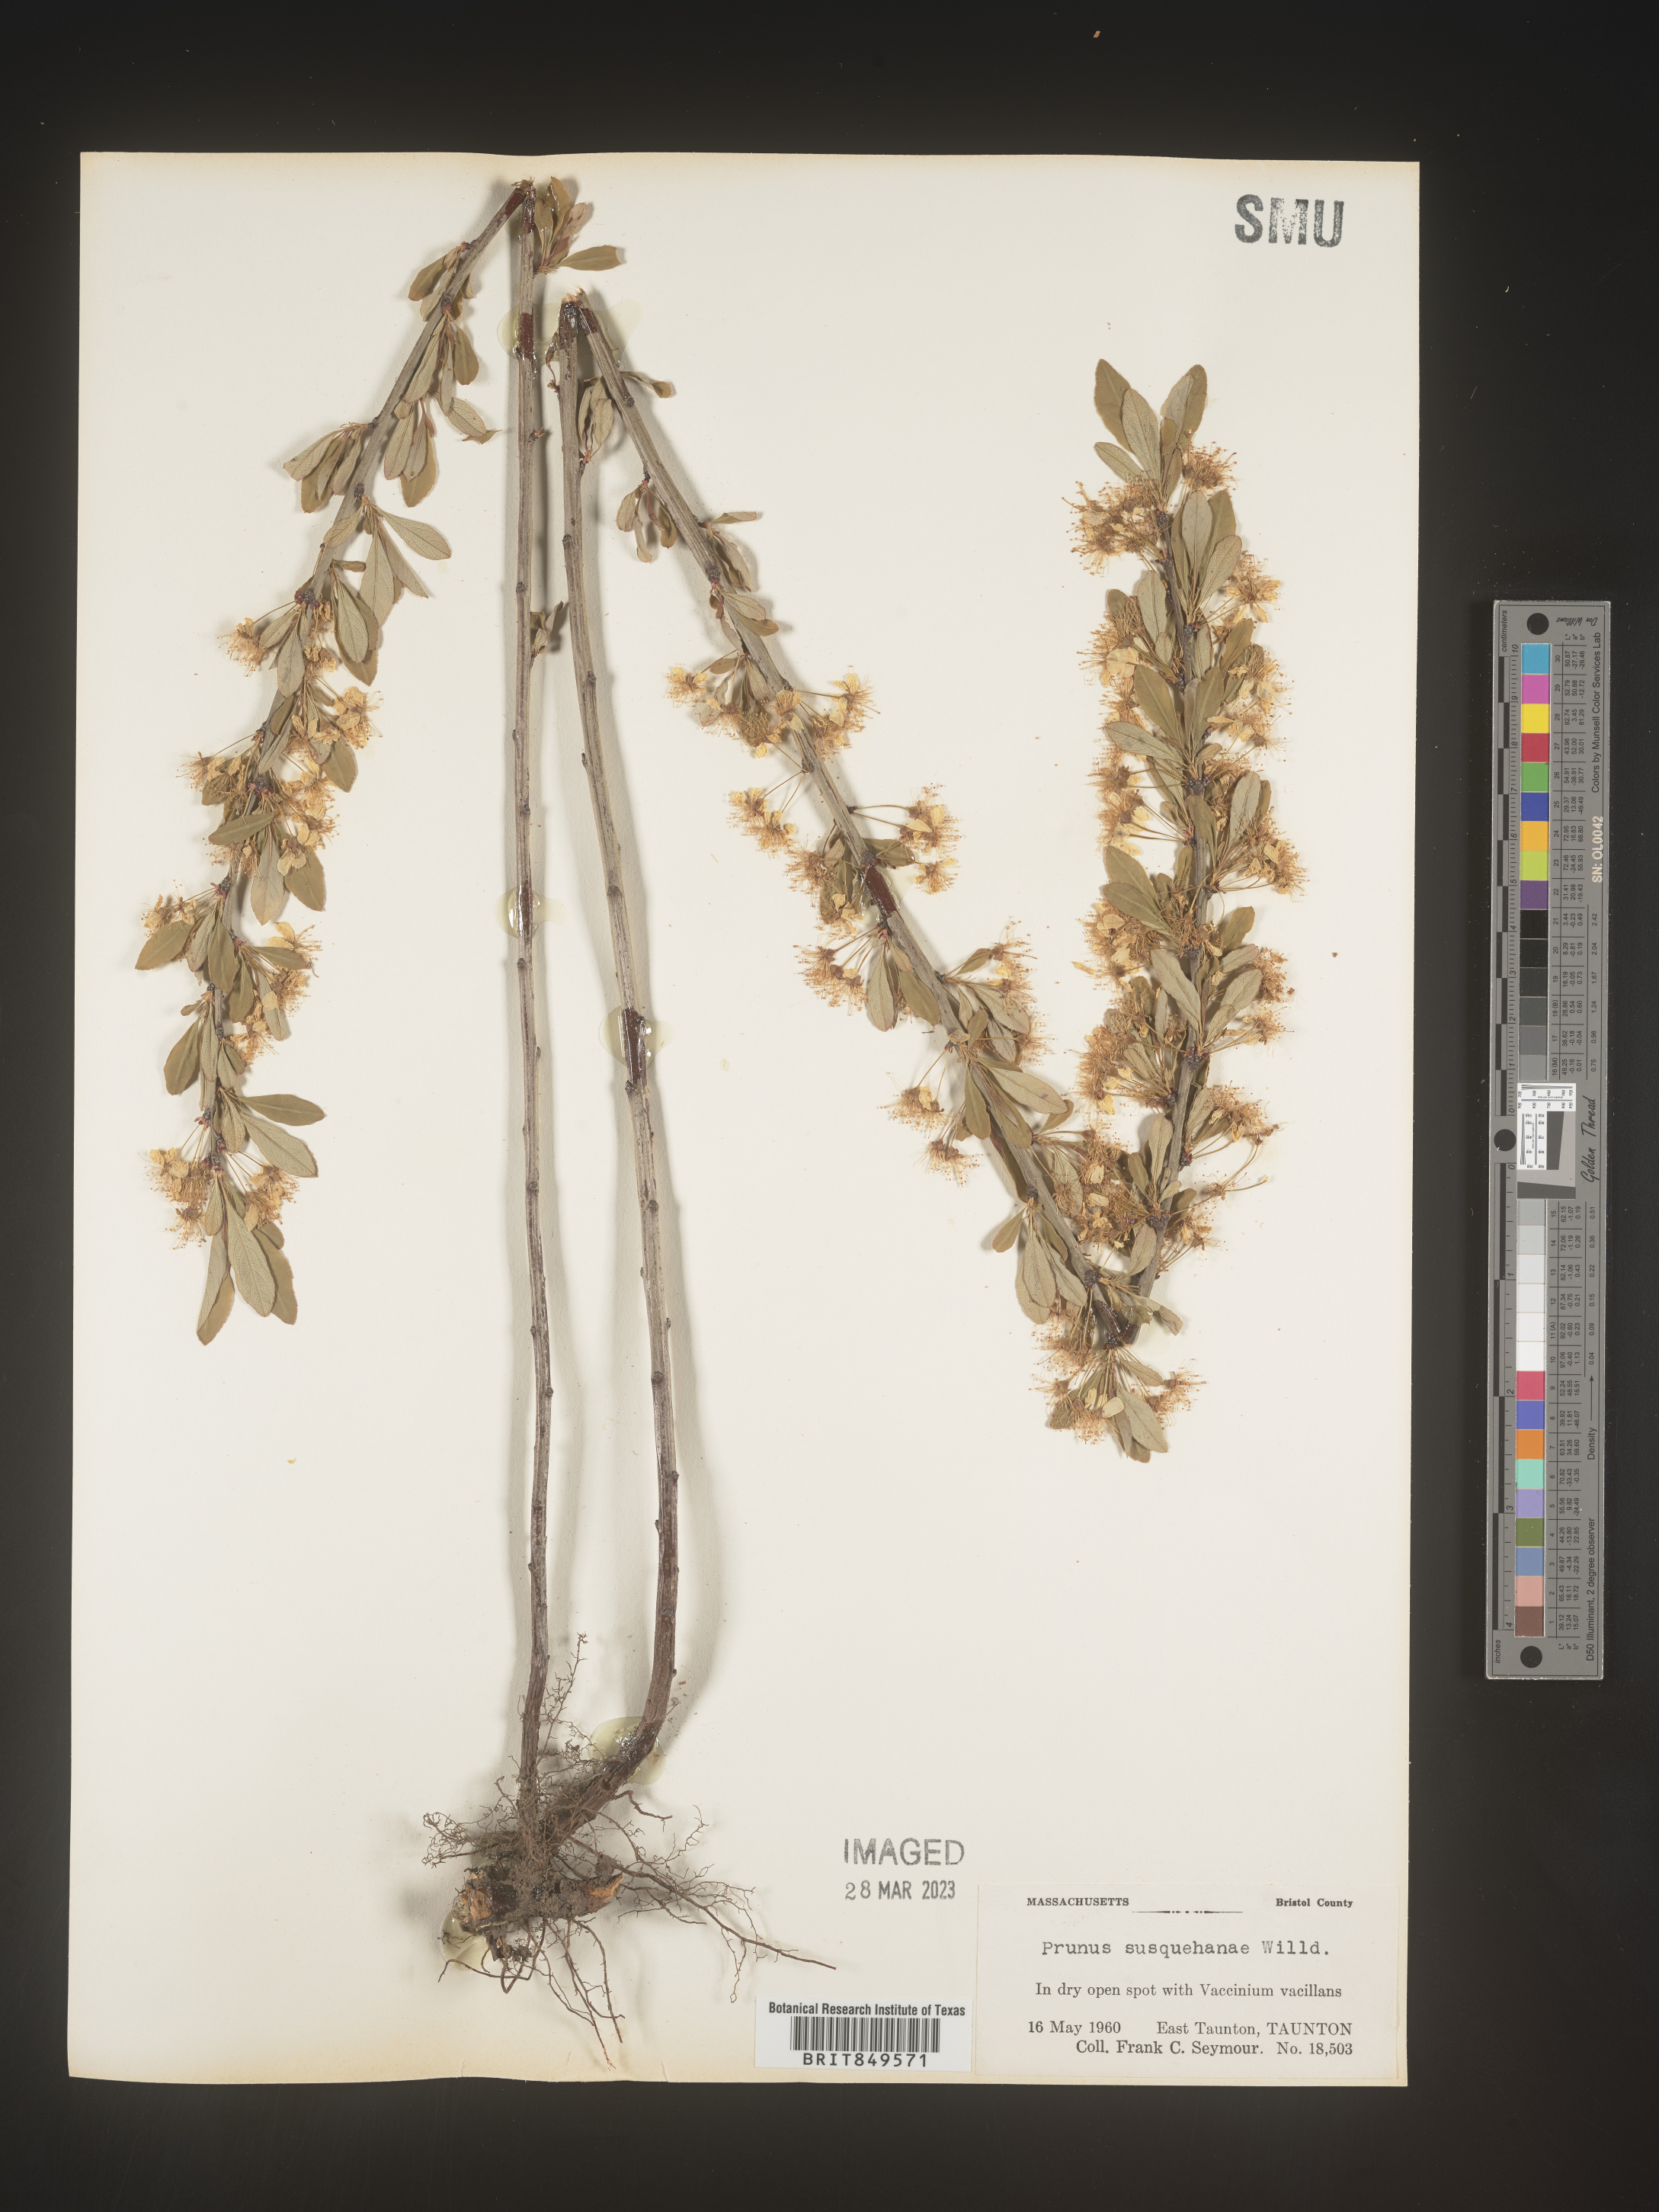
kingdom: Plantae
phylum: Tracheophyta
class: Magnoliopsida
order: Rosales
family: Rosaceae
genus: Prunus
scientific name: Prunus
